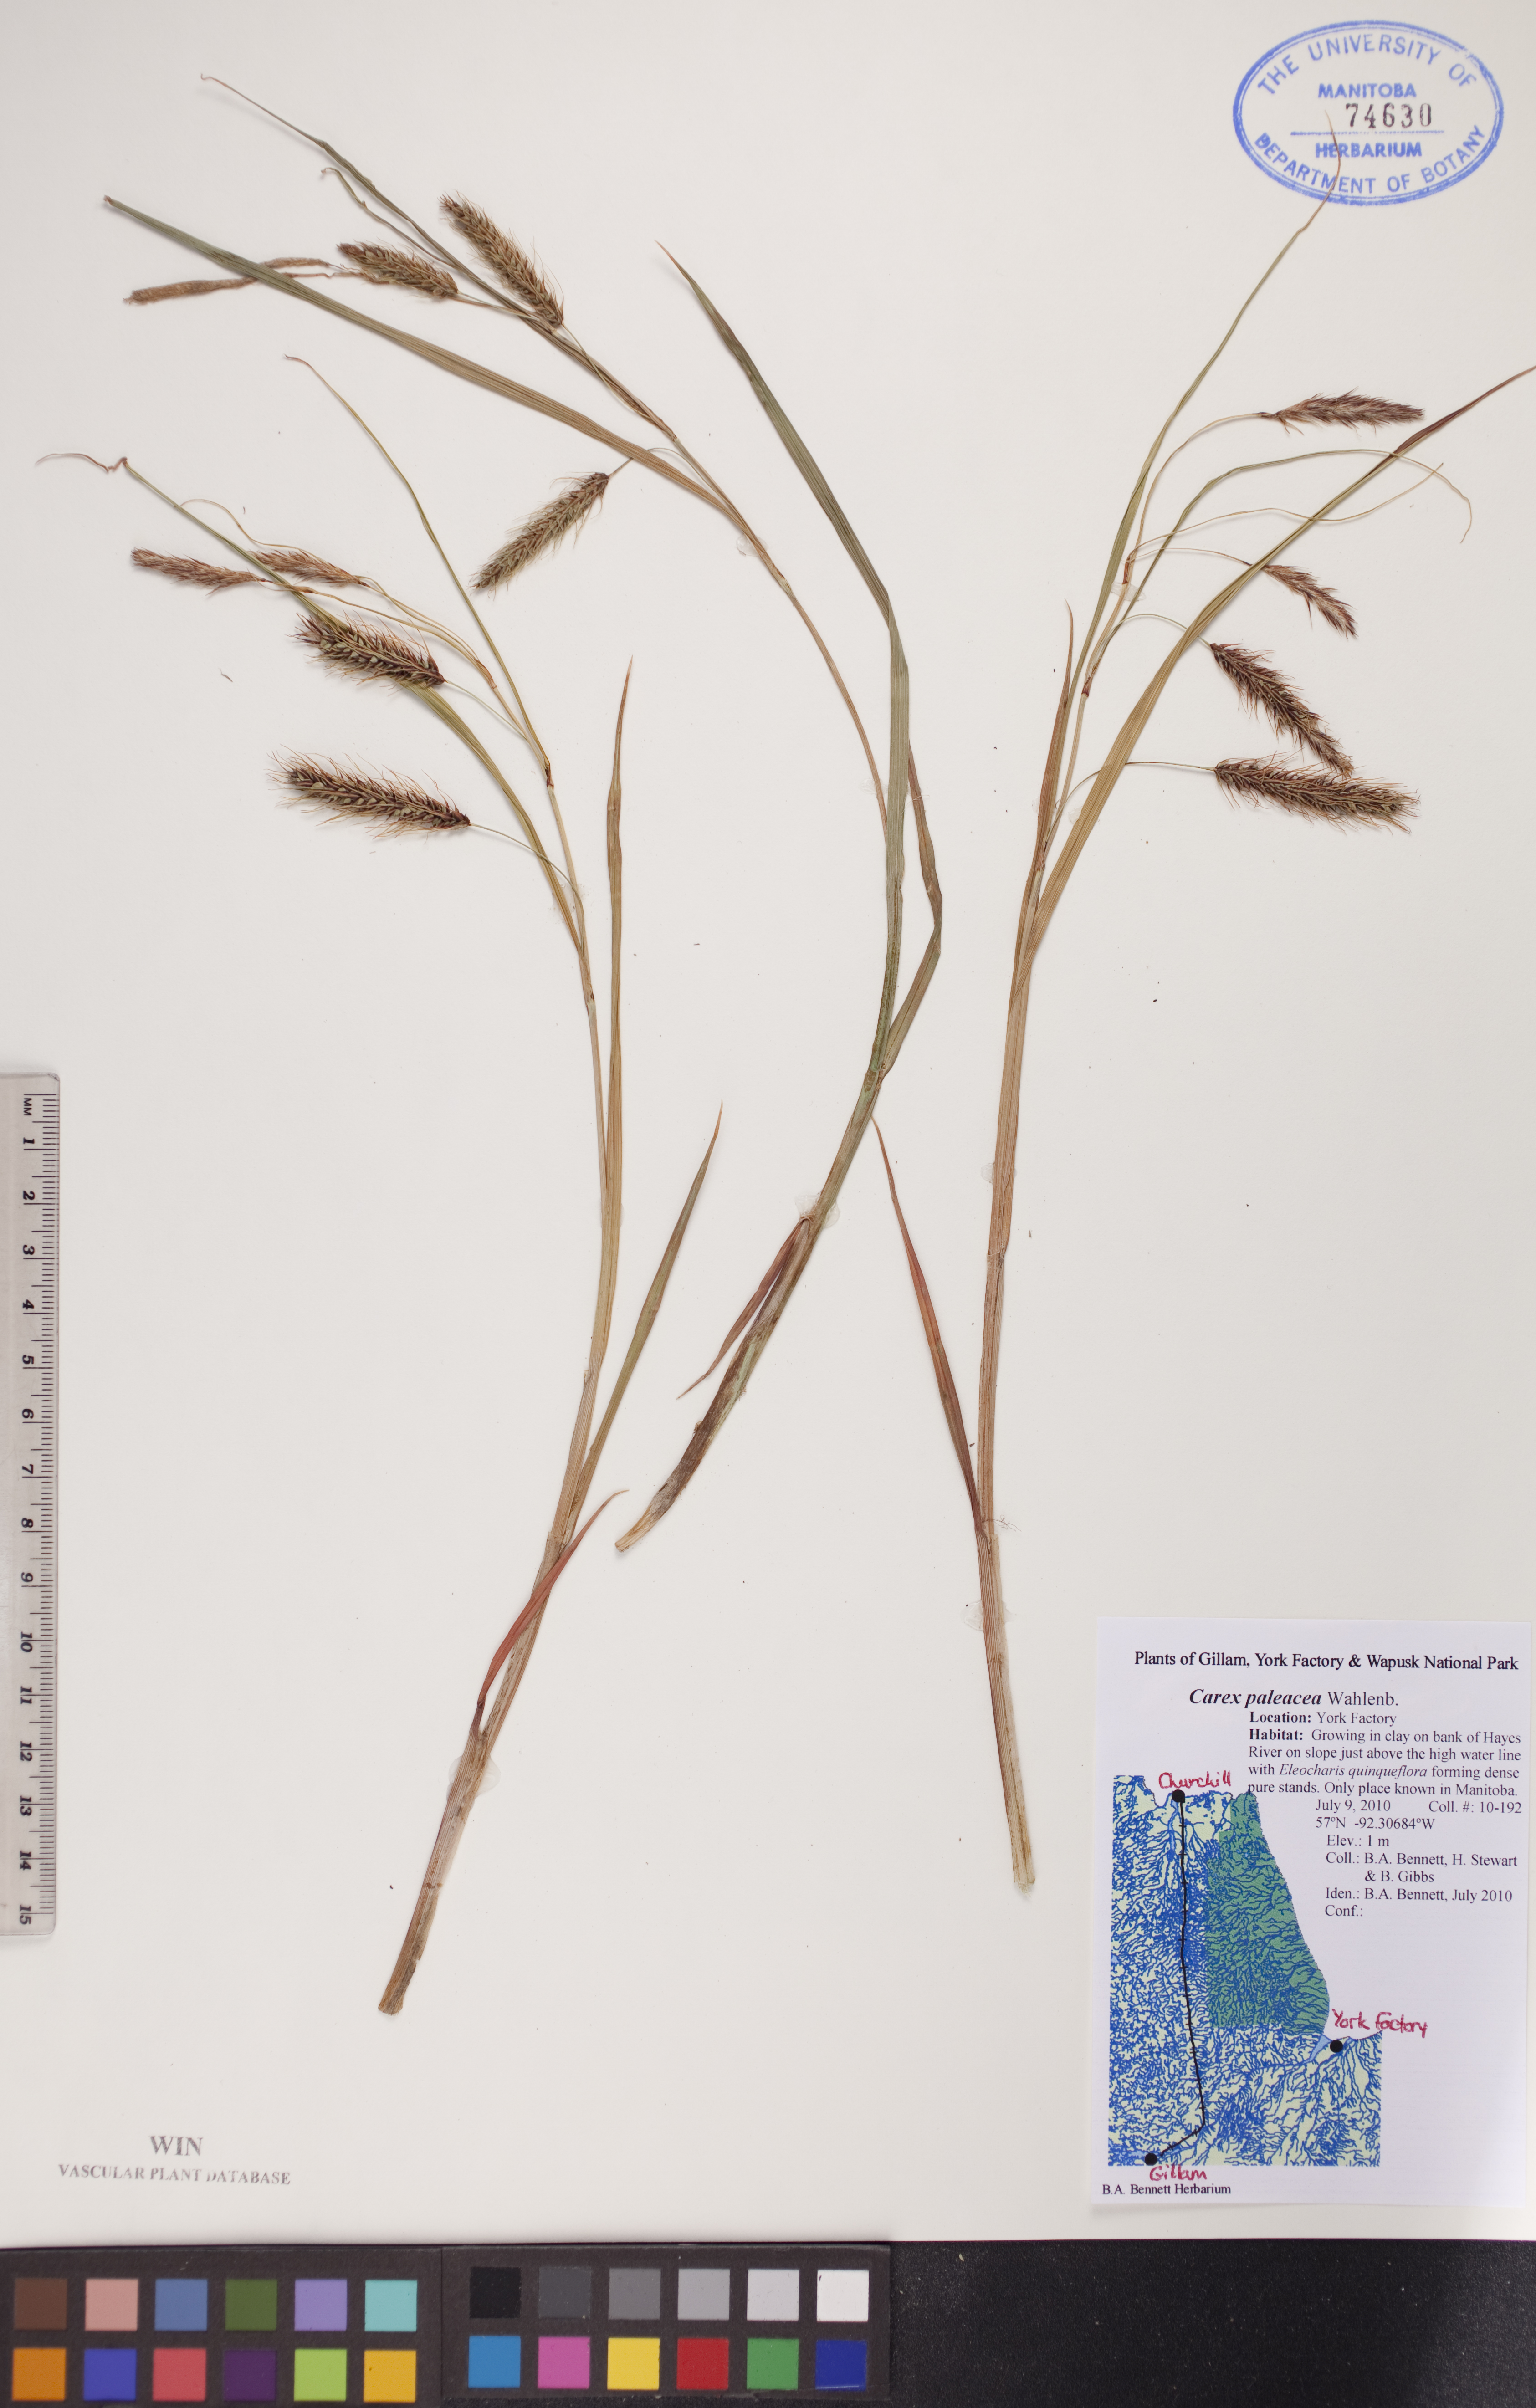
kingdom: Plantae
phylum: Tracheophyta
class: Liliopsida
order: Poales
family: Cyperaceae
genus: Carex
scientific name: Carex paleacea
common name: Chaffy sedge
